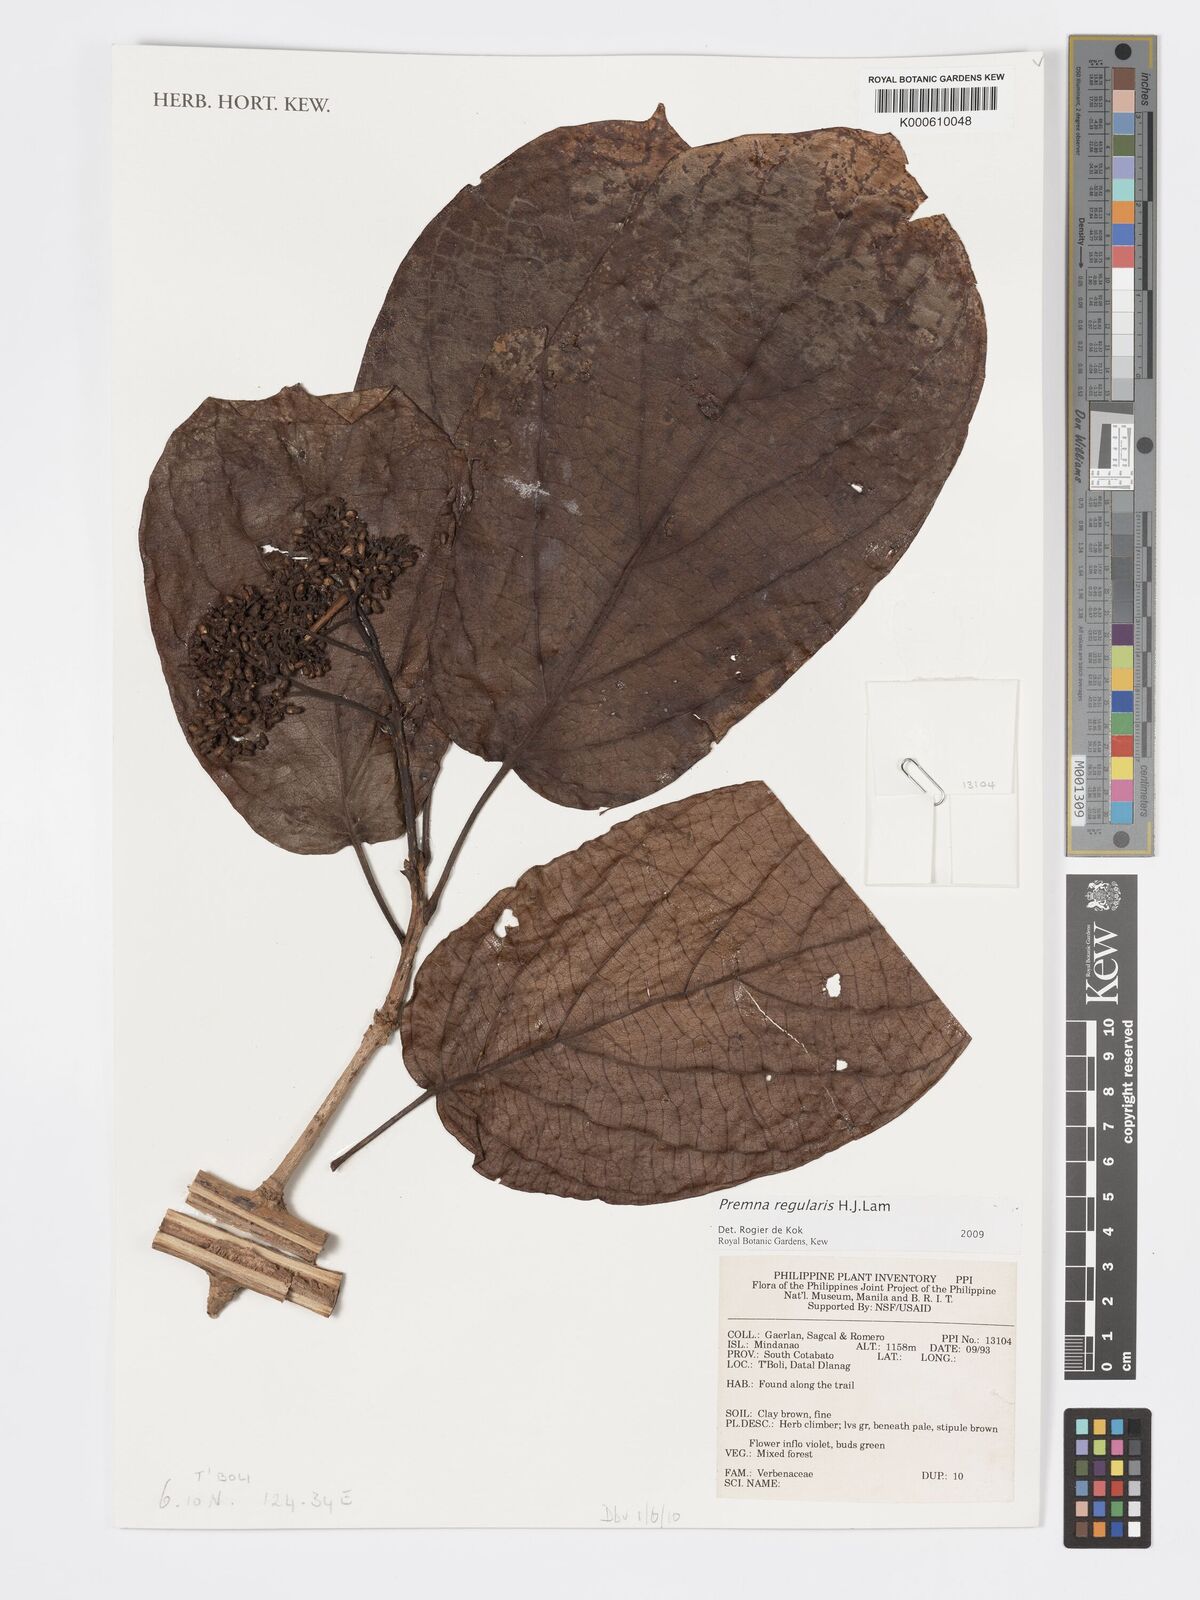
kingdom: Plantae
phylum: Tracheophyta
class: Magnoliopsida
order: Lamiales
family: Lamiaceae
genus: Premna
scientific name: Premna regularis
